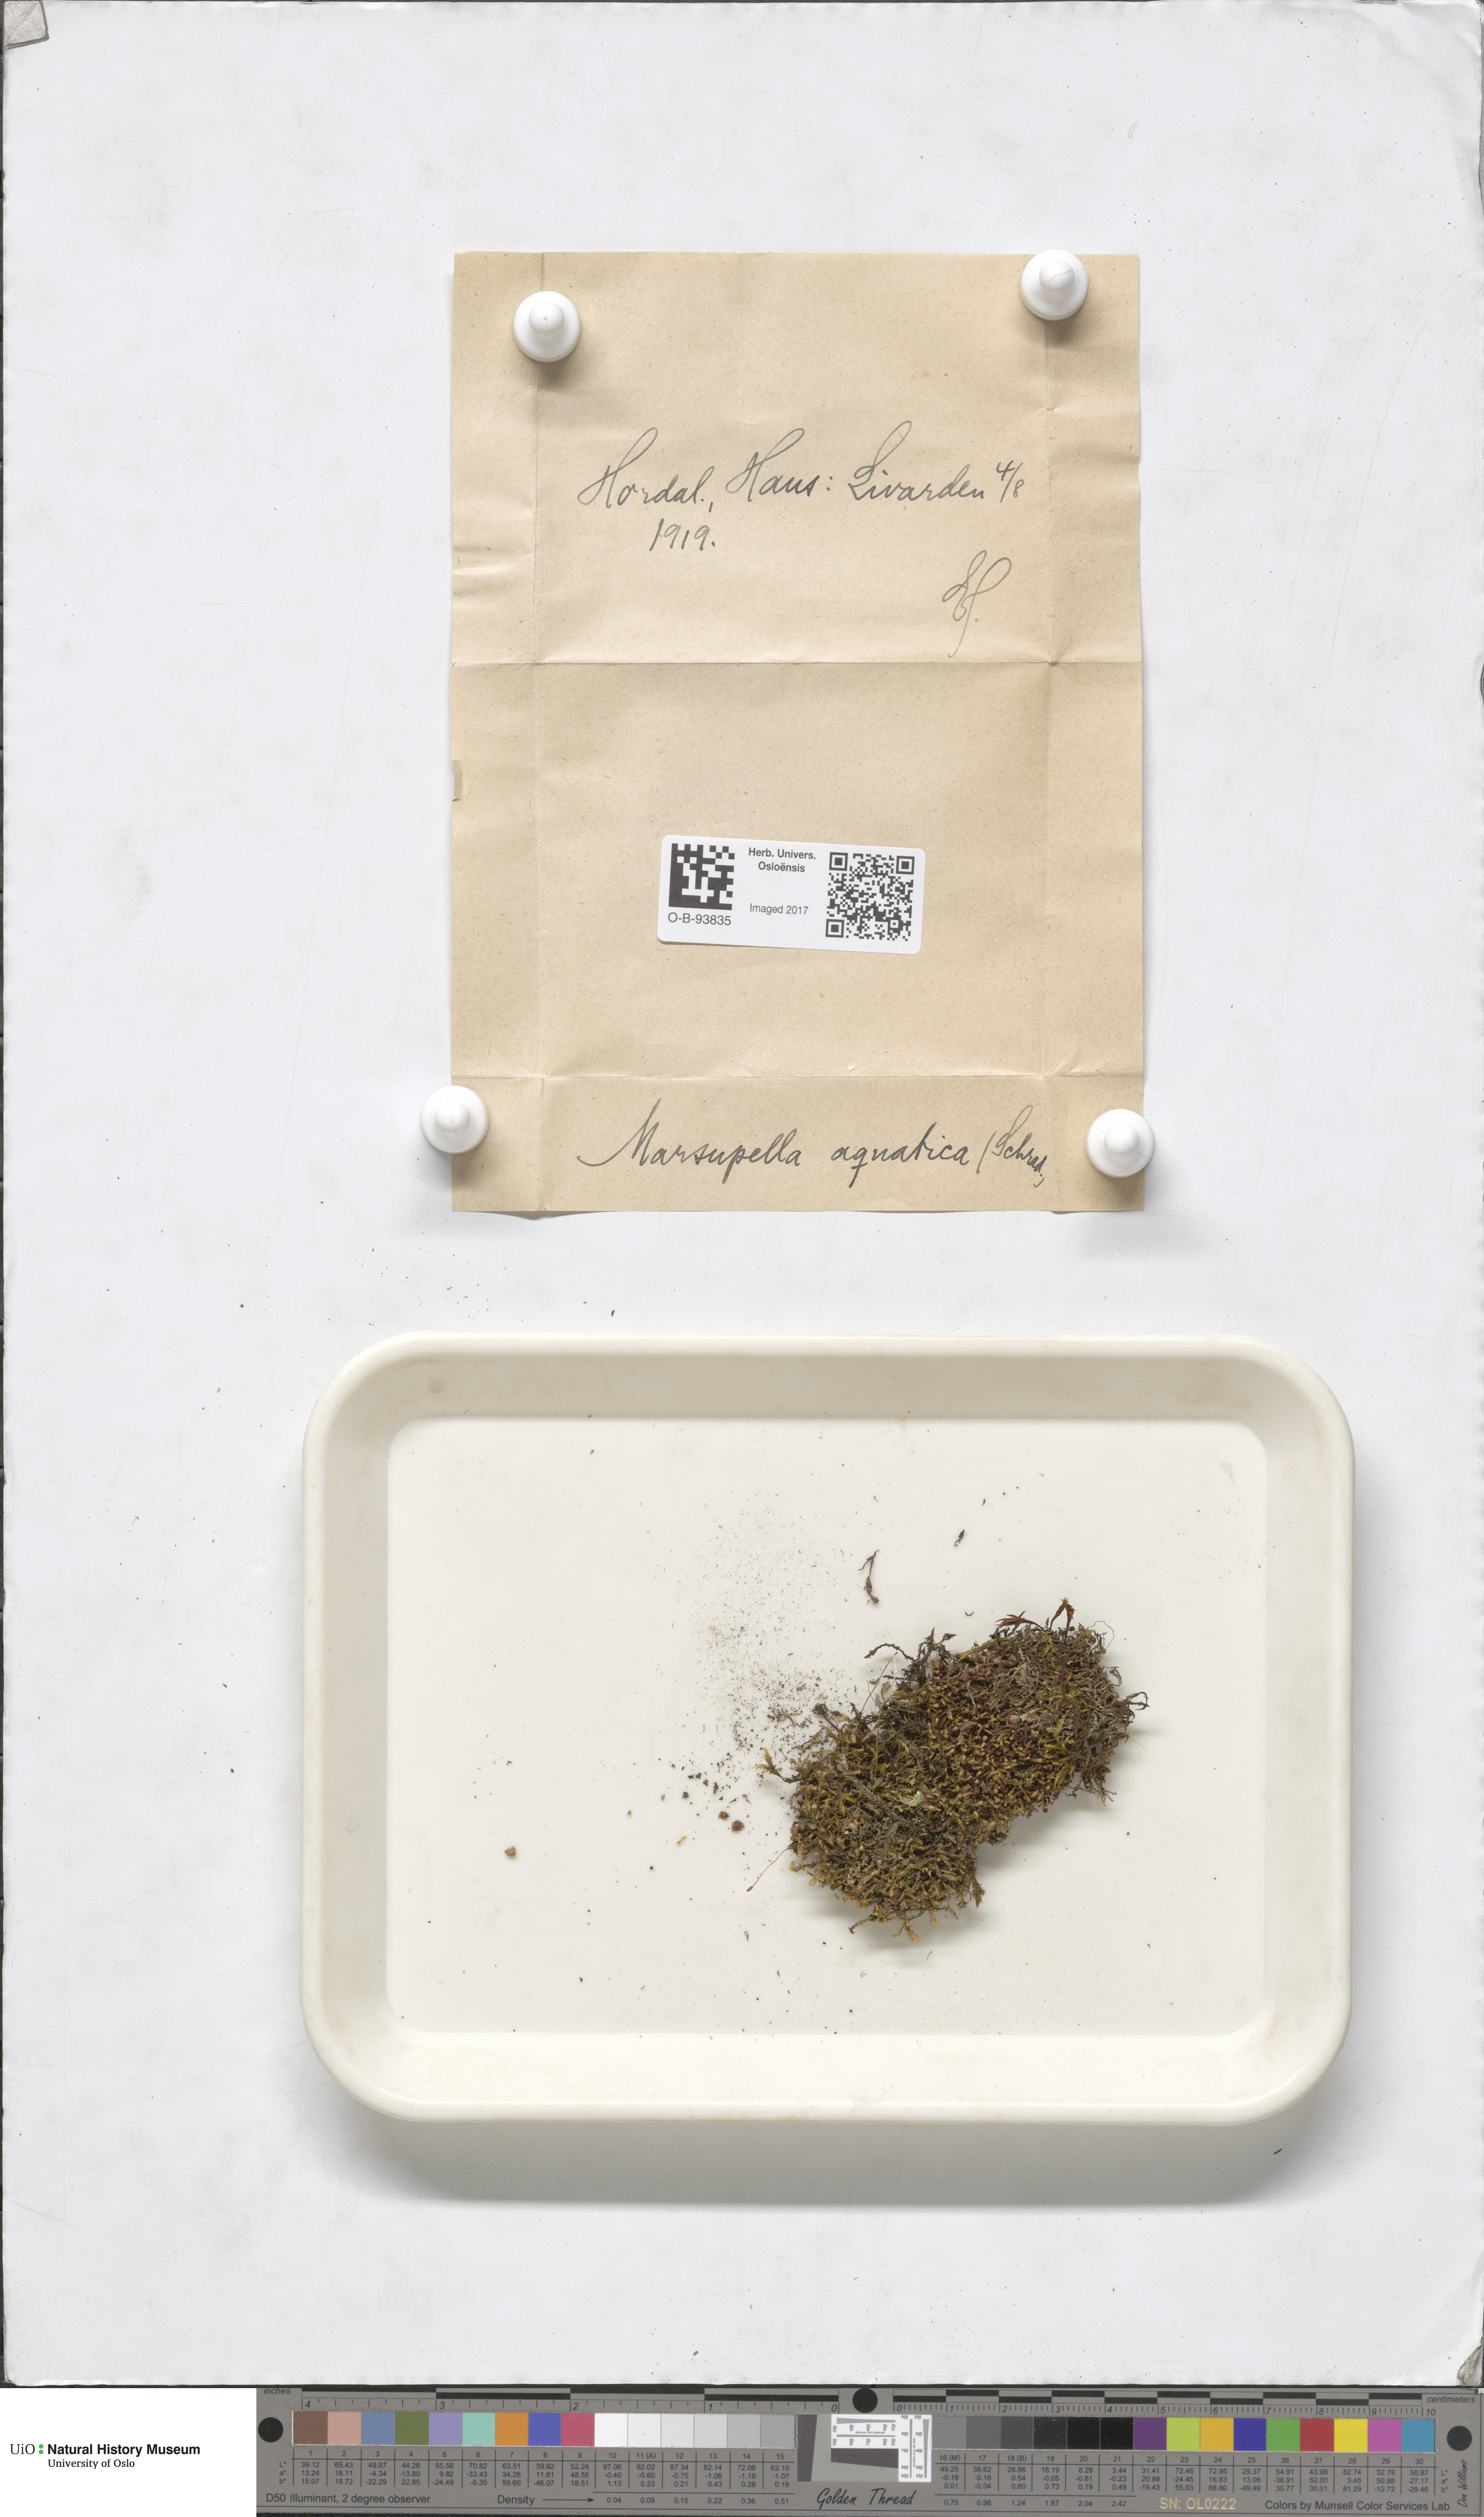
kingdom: Plantae
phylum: Marchantiophyta
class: Jungermanniopsida
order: Jungermanniales
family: Gymnomitriaceae
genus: Marsupella
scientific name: Marsupella emarginata
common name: Notched rustwort
